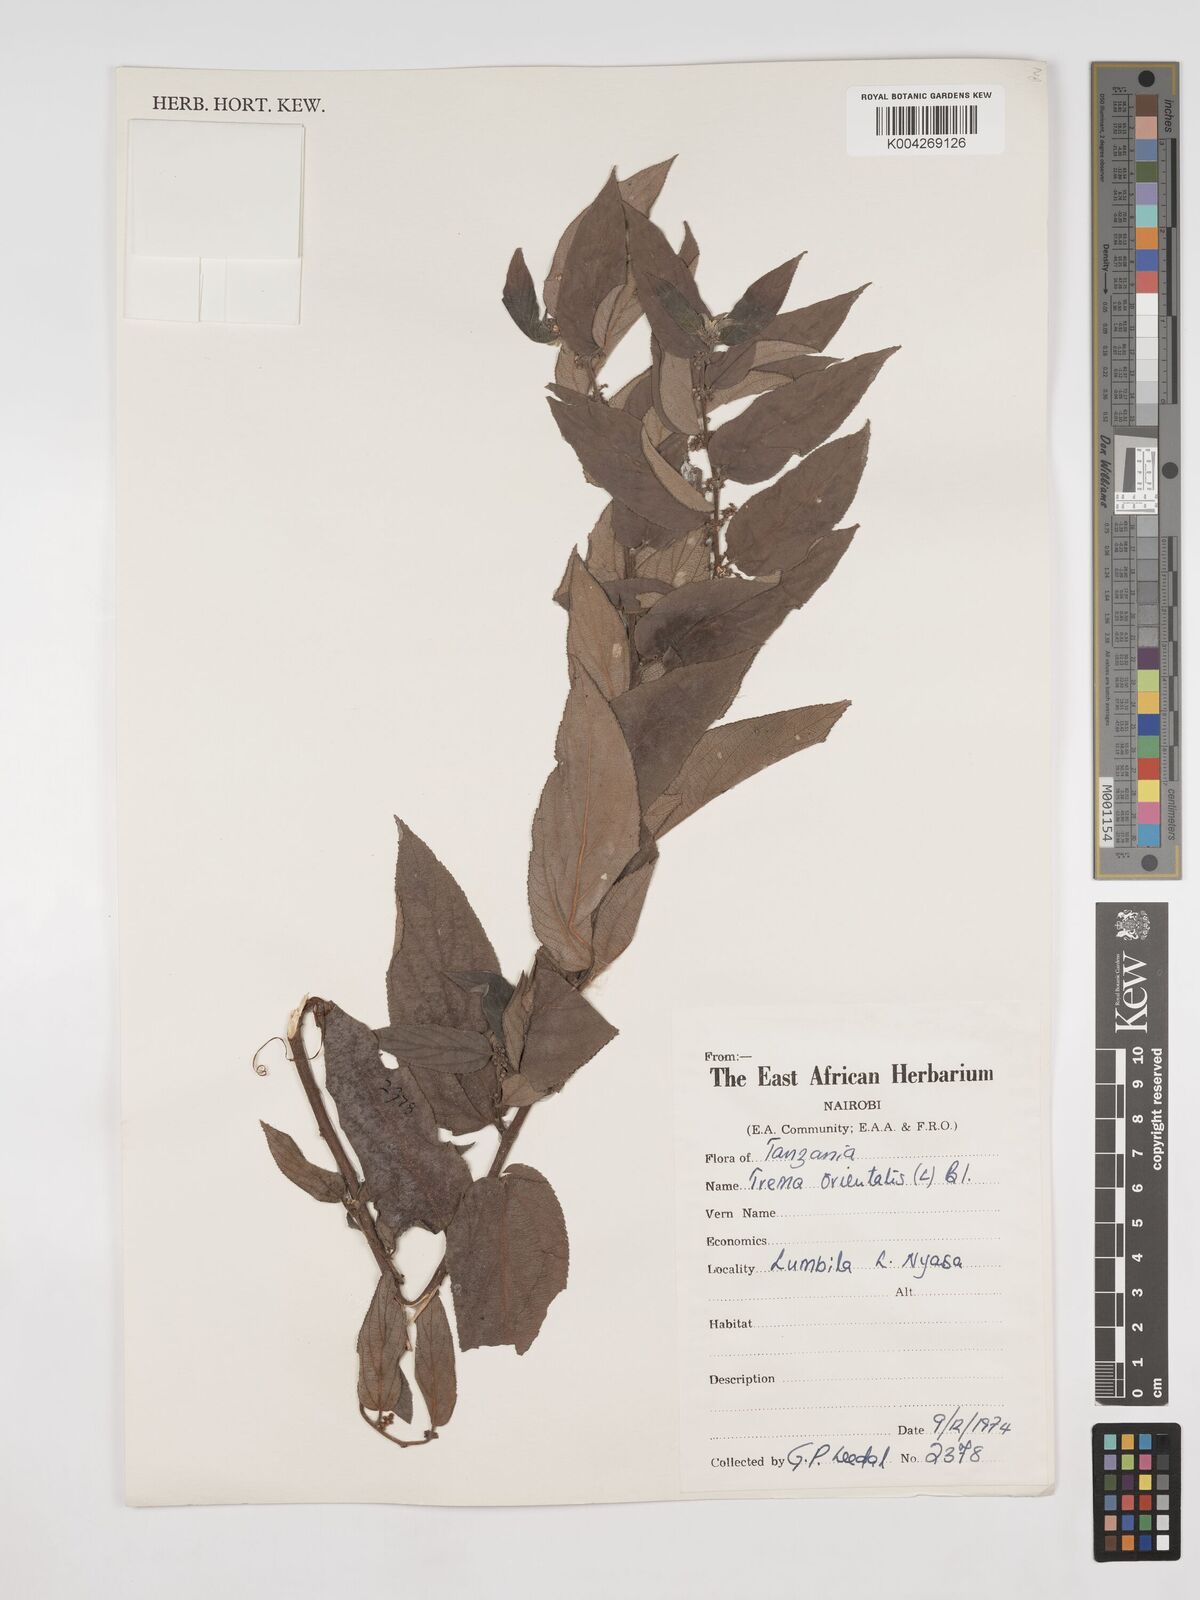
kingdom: Plantae
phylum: Tracheophyta
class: Magnoliopsida
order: Rosales
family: Cannabaceae
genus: Trema
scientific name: Trema orientale
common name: Indian charcoal tree
